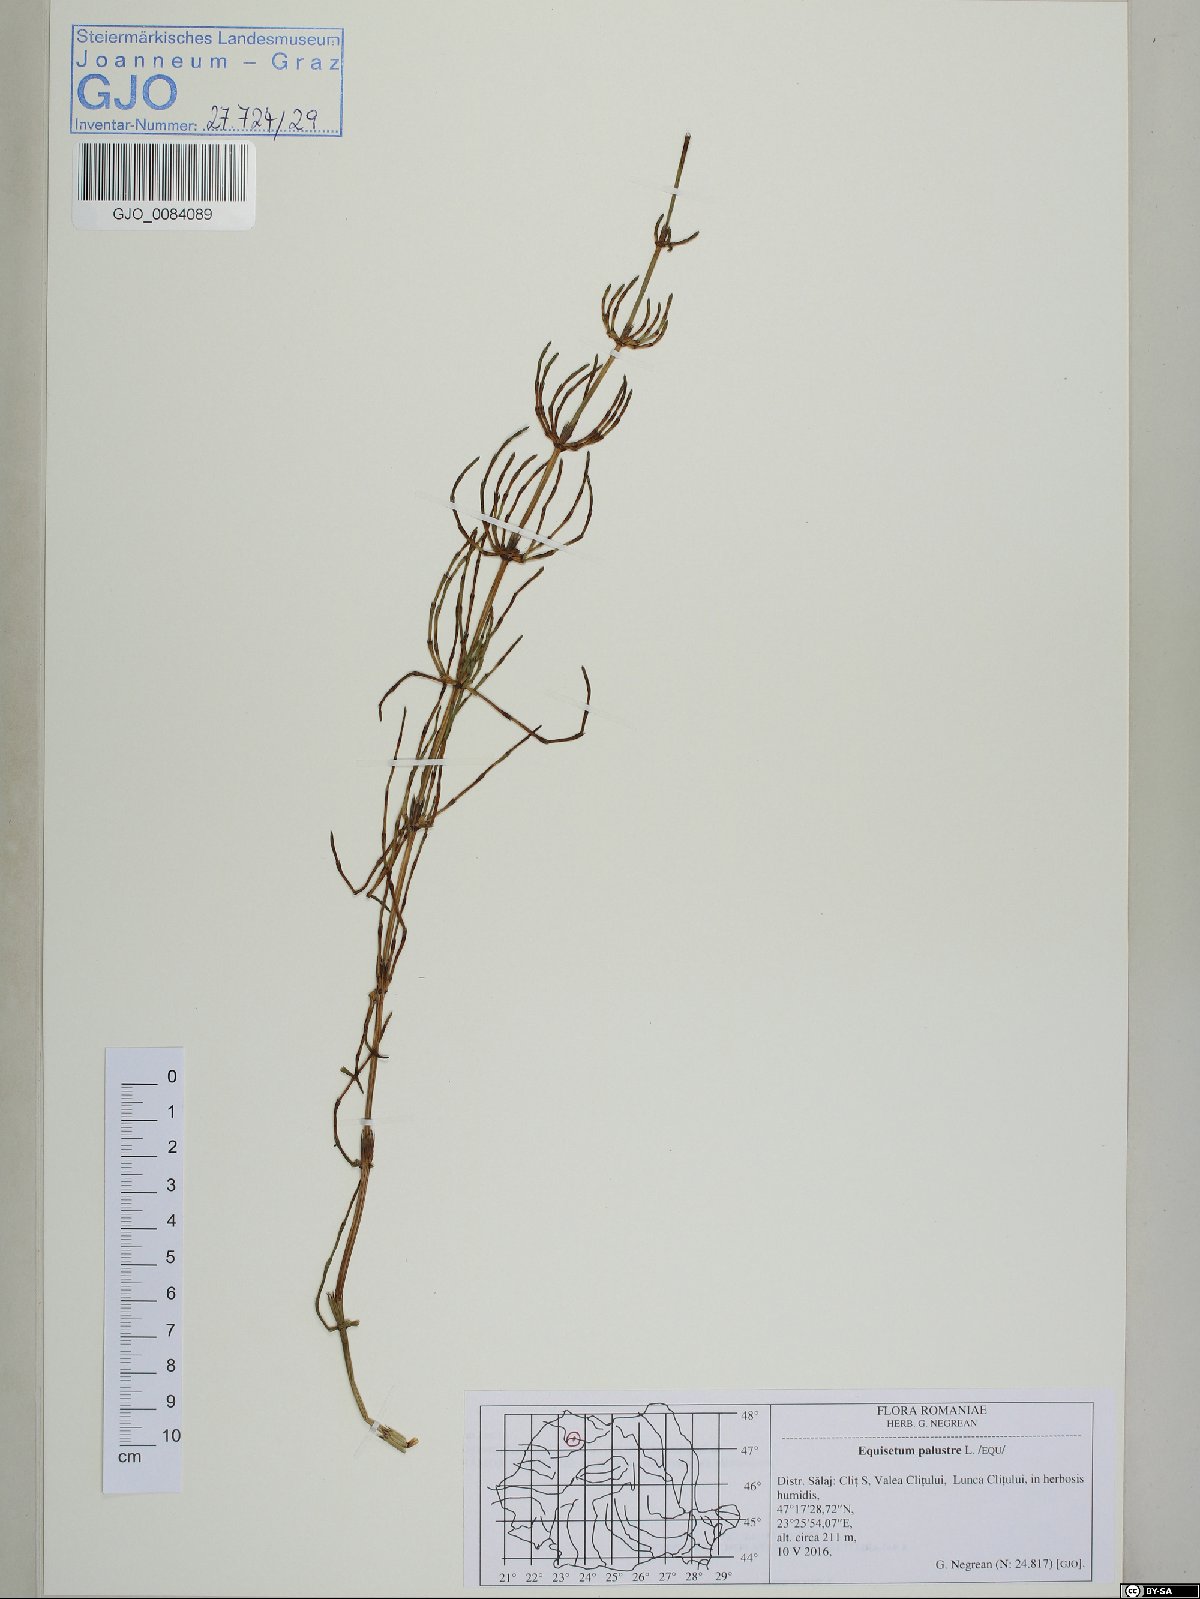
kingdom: Plantae
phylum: Tracheophyta
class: Polypodiopsida
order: Equisetales
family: Equisetaceae
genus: Equisetum
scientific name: Equisetum palustre
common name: Marsh horsetail
